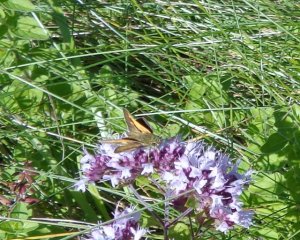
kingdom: Animalia
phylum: Arthropoda
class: Insecta
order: Lepidoptera
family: Hesperiidae
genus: Polites
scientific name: Polites themistocles
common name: Tawny-edged Skipper
